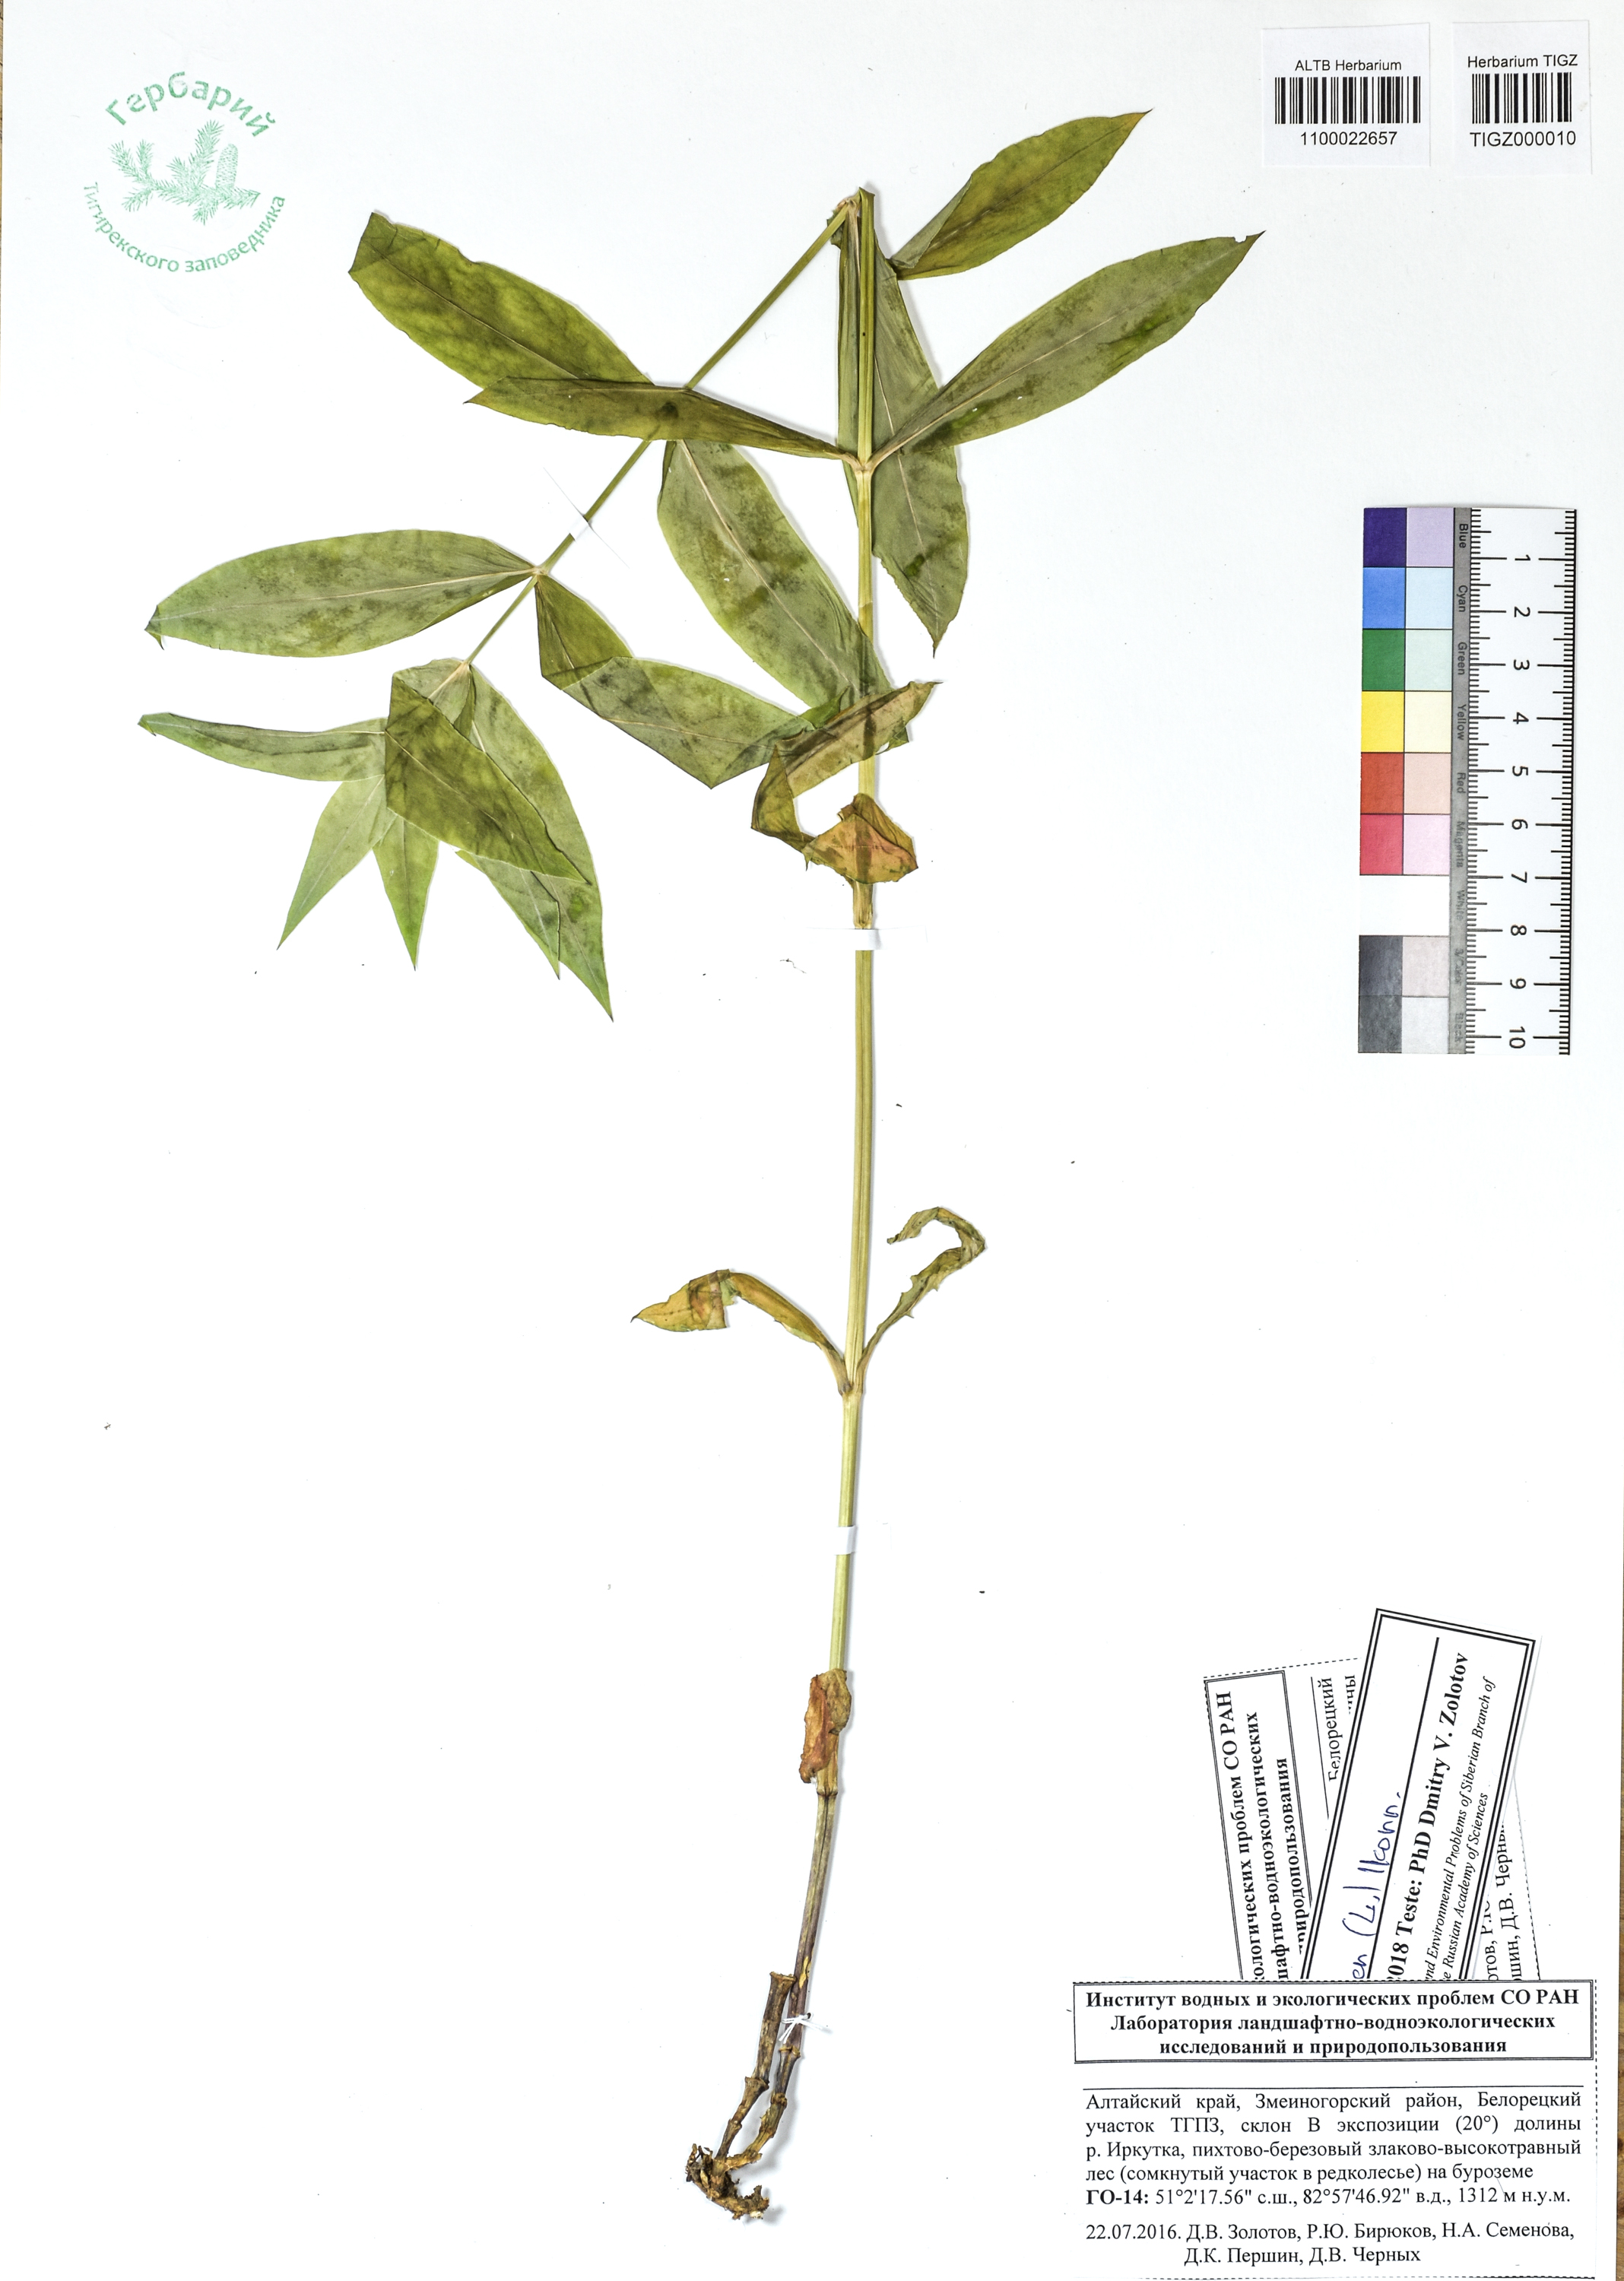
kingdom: Plantae
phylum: Tracheophyta
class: Magnoliopsida
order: Caryophyllales
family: Caryophyllaceae
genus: Silene
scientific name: Silene vulgaris
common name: Bladder campion
